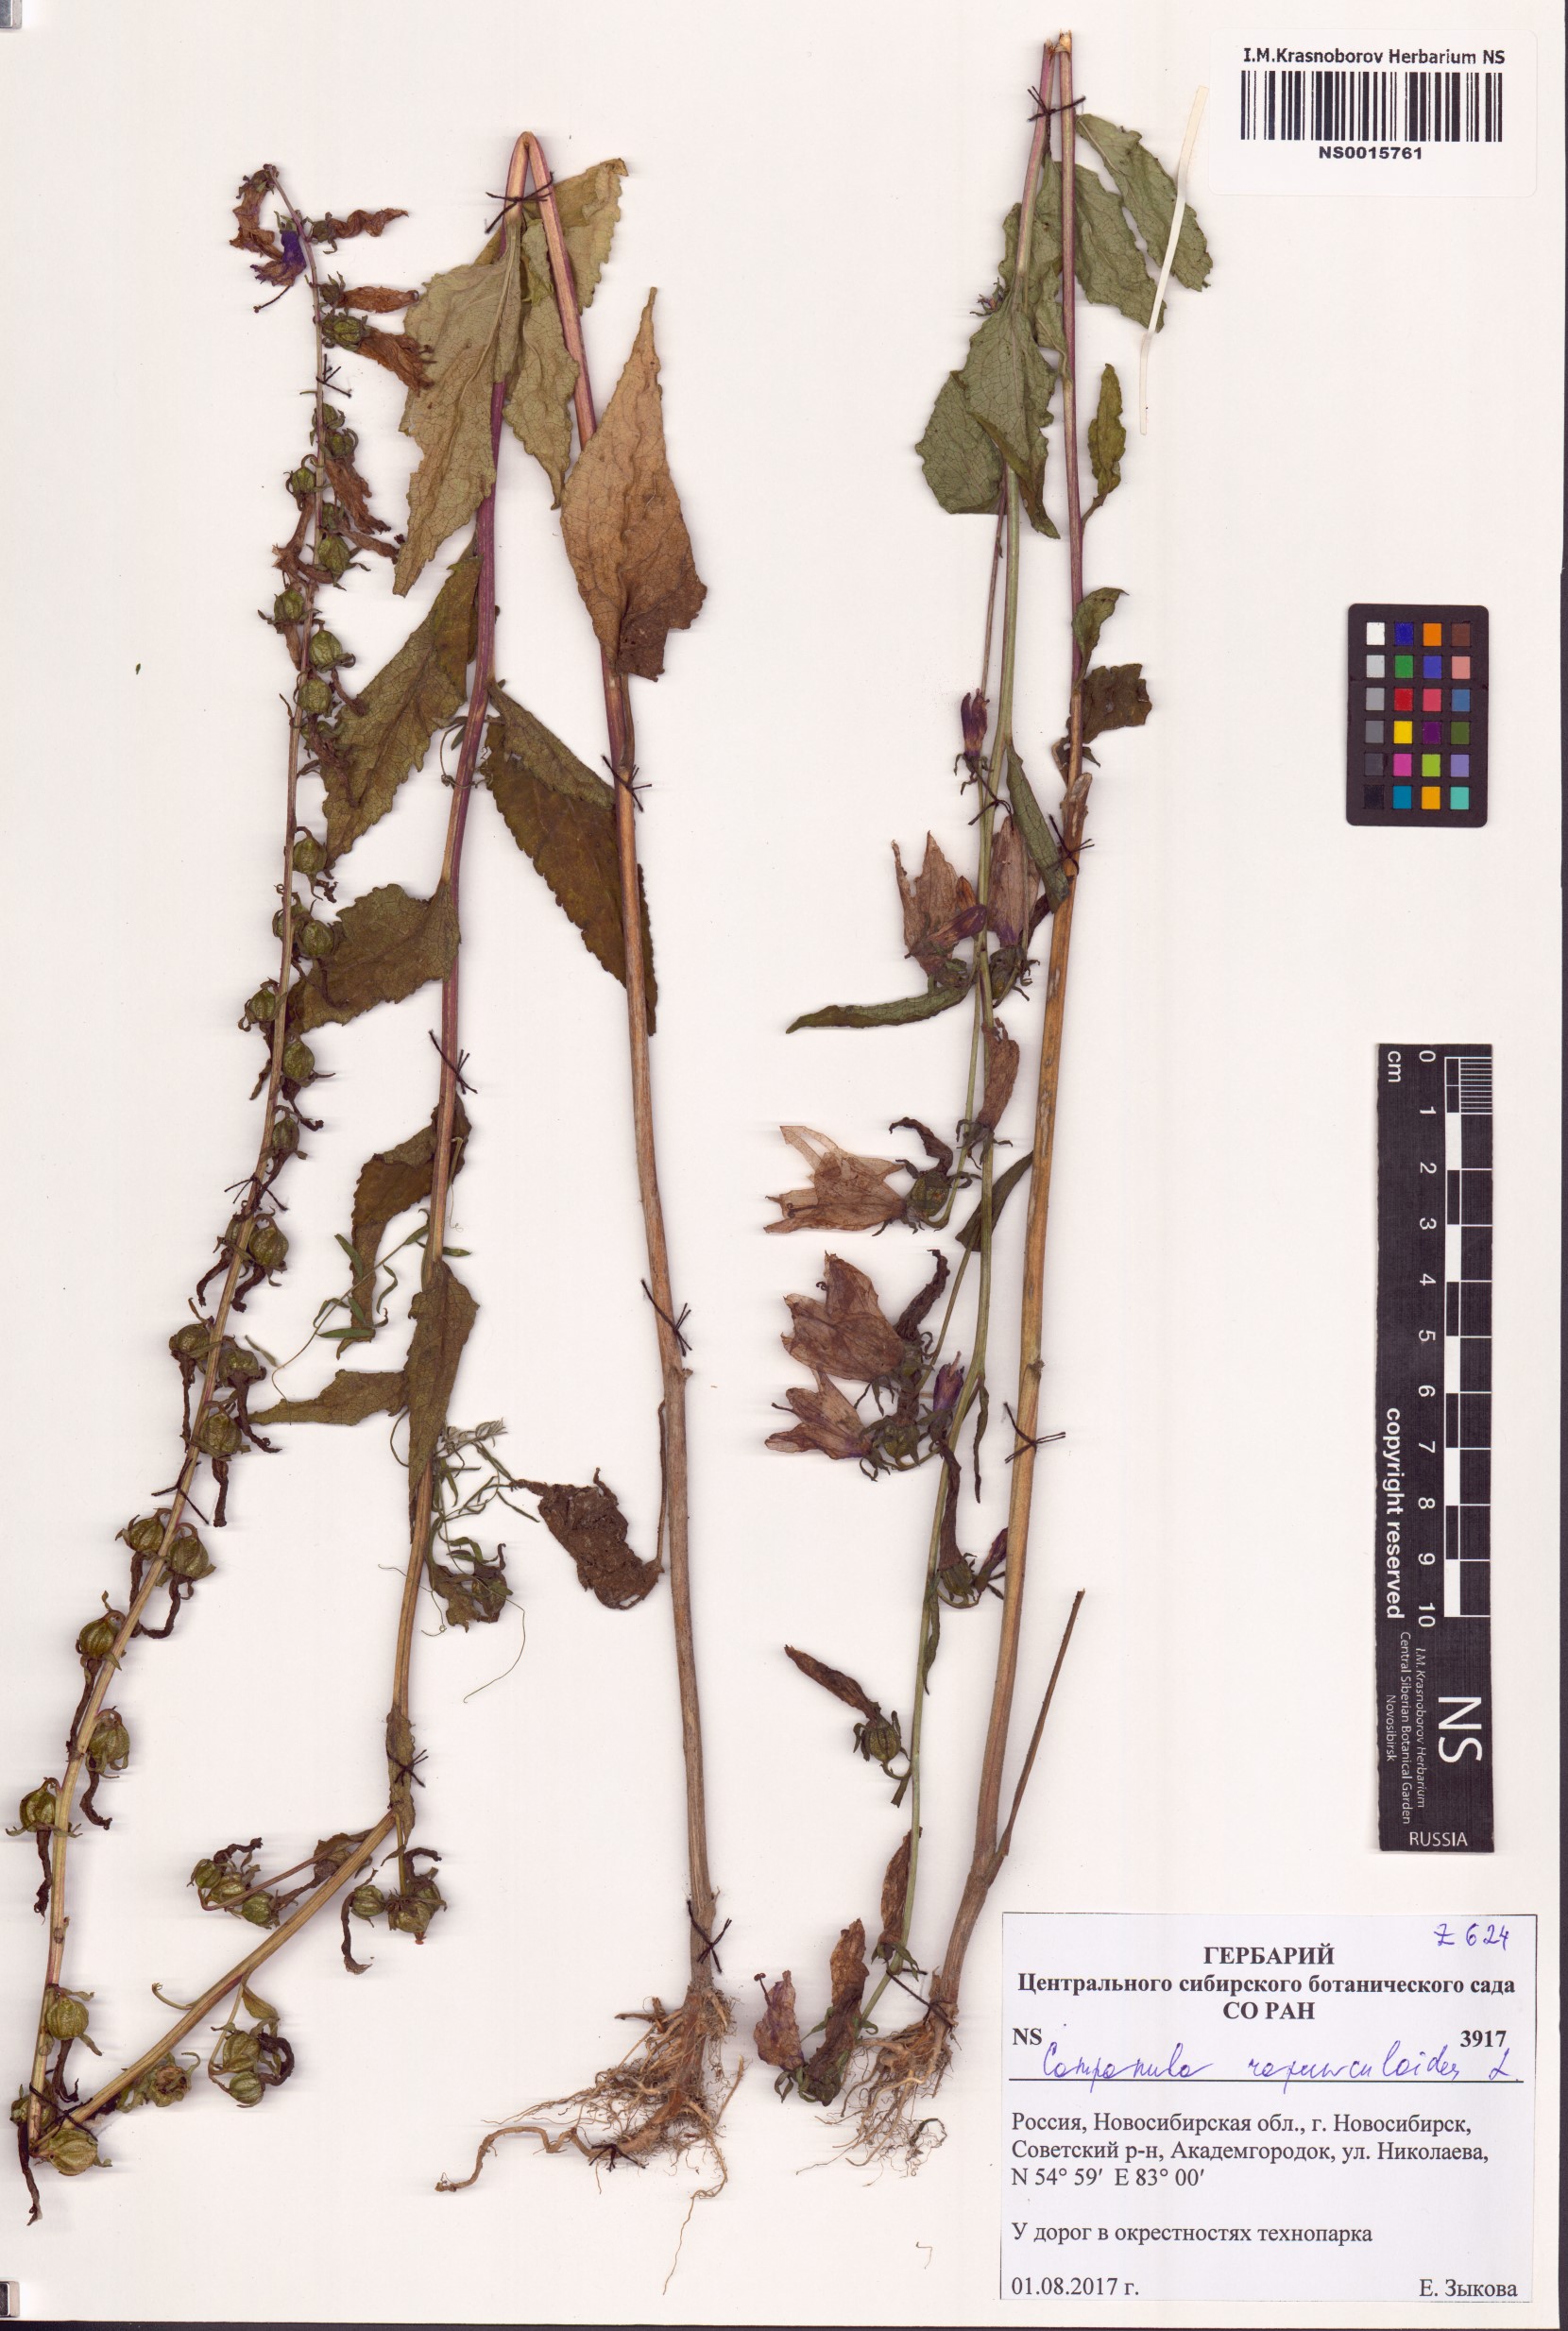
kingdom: Plantae
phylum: Tracheophyta
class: Magnoliopsida
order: Asterales
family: Campanulaceae
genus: Campanula
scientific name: Campanula rapunculoides
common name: Creeping bellflower
